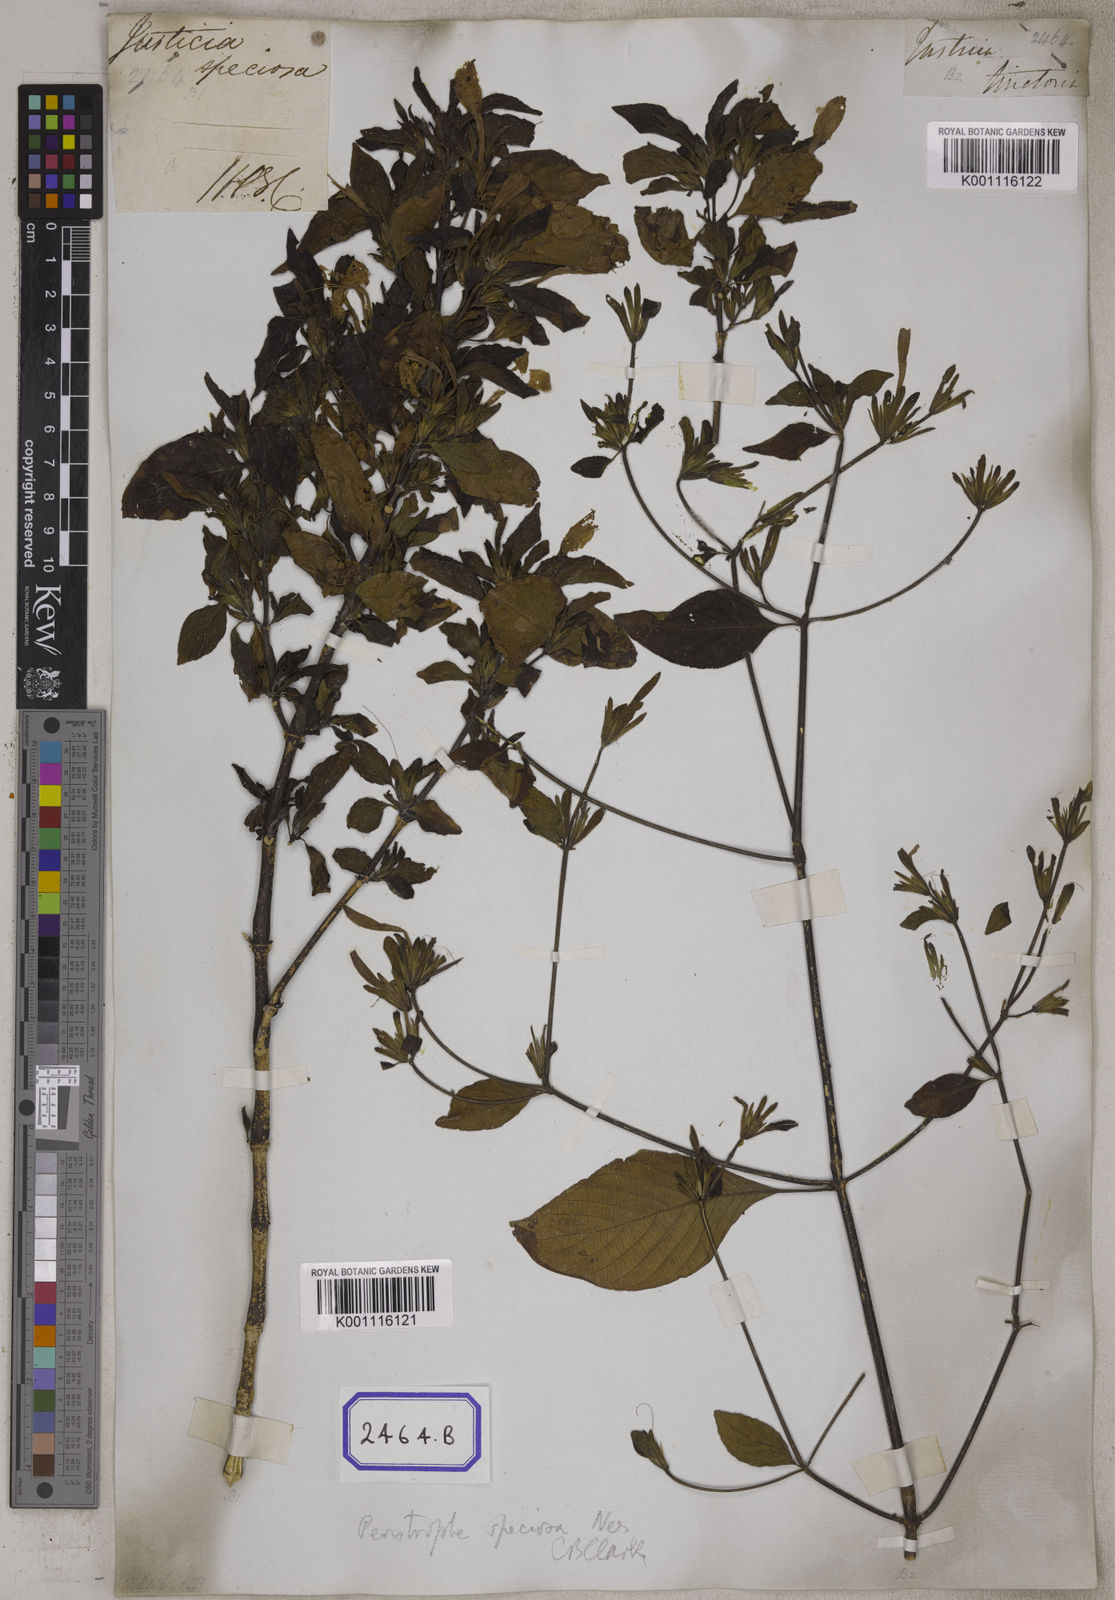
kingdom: Plantae
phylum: Tracheophyta
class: Magnoliopsida
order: Lamiales
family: Acanthaceae
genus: Dicliptera
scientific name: Dicliptera raui
